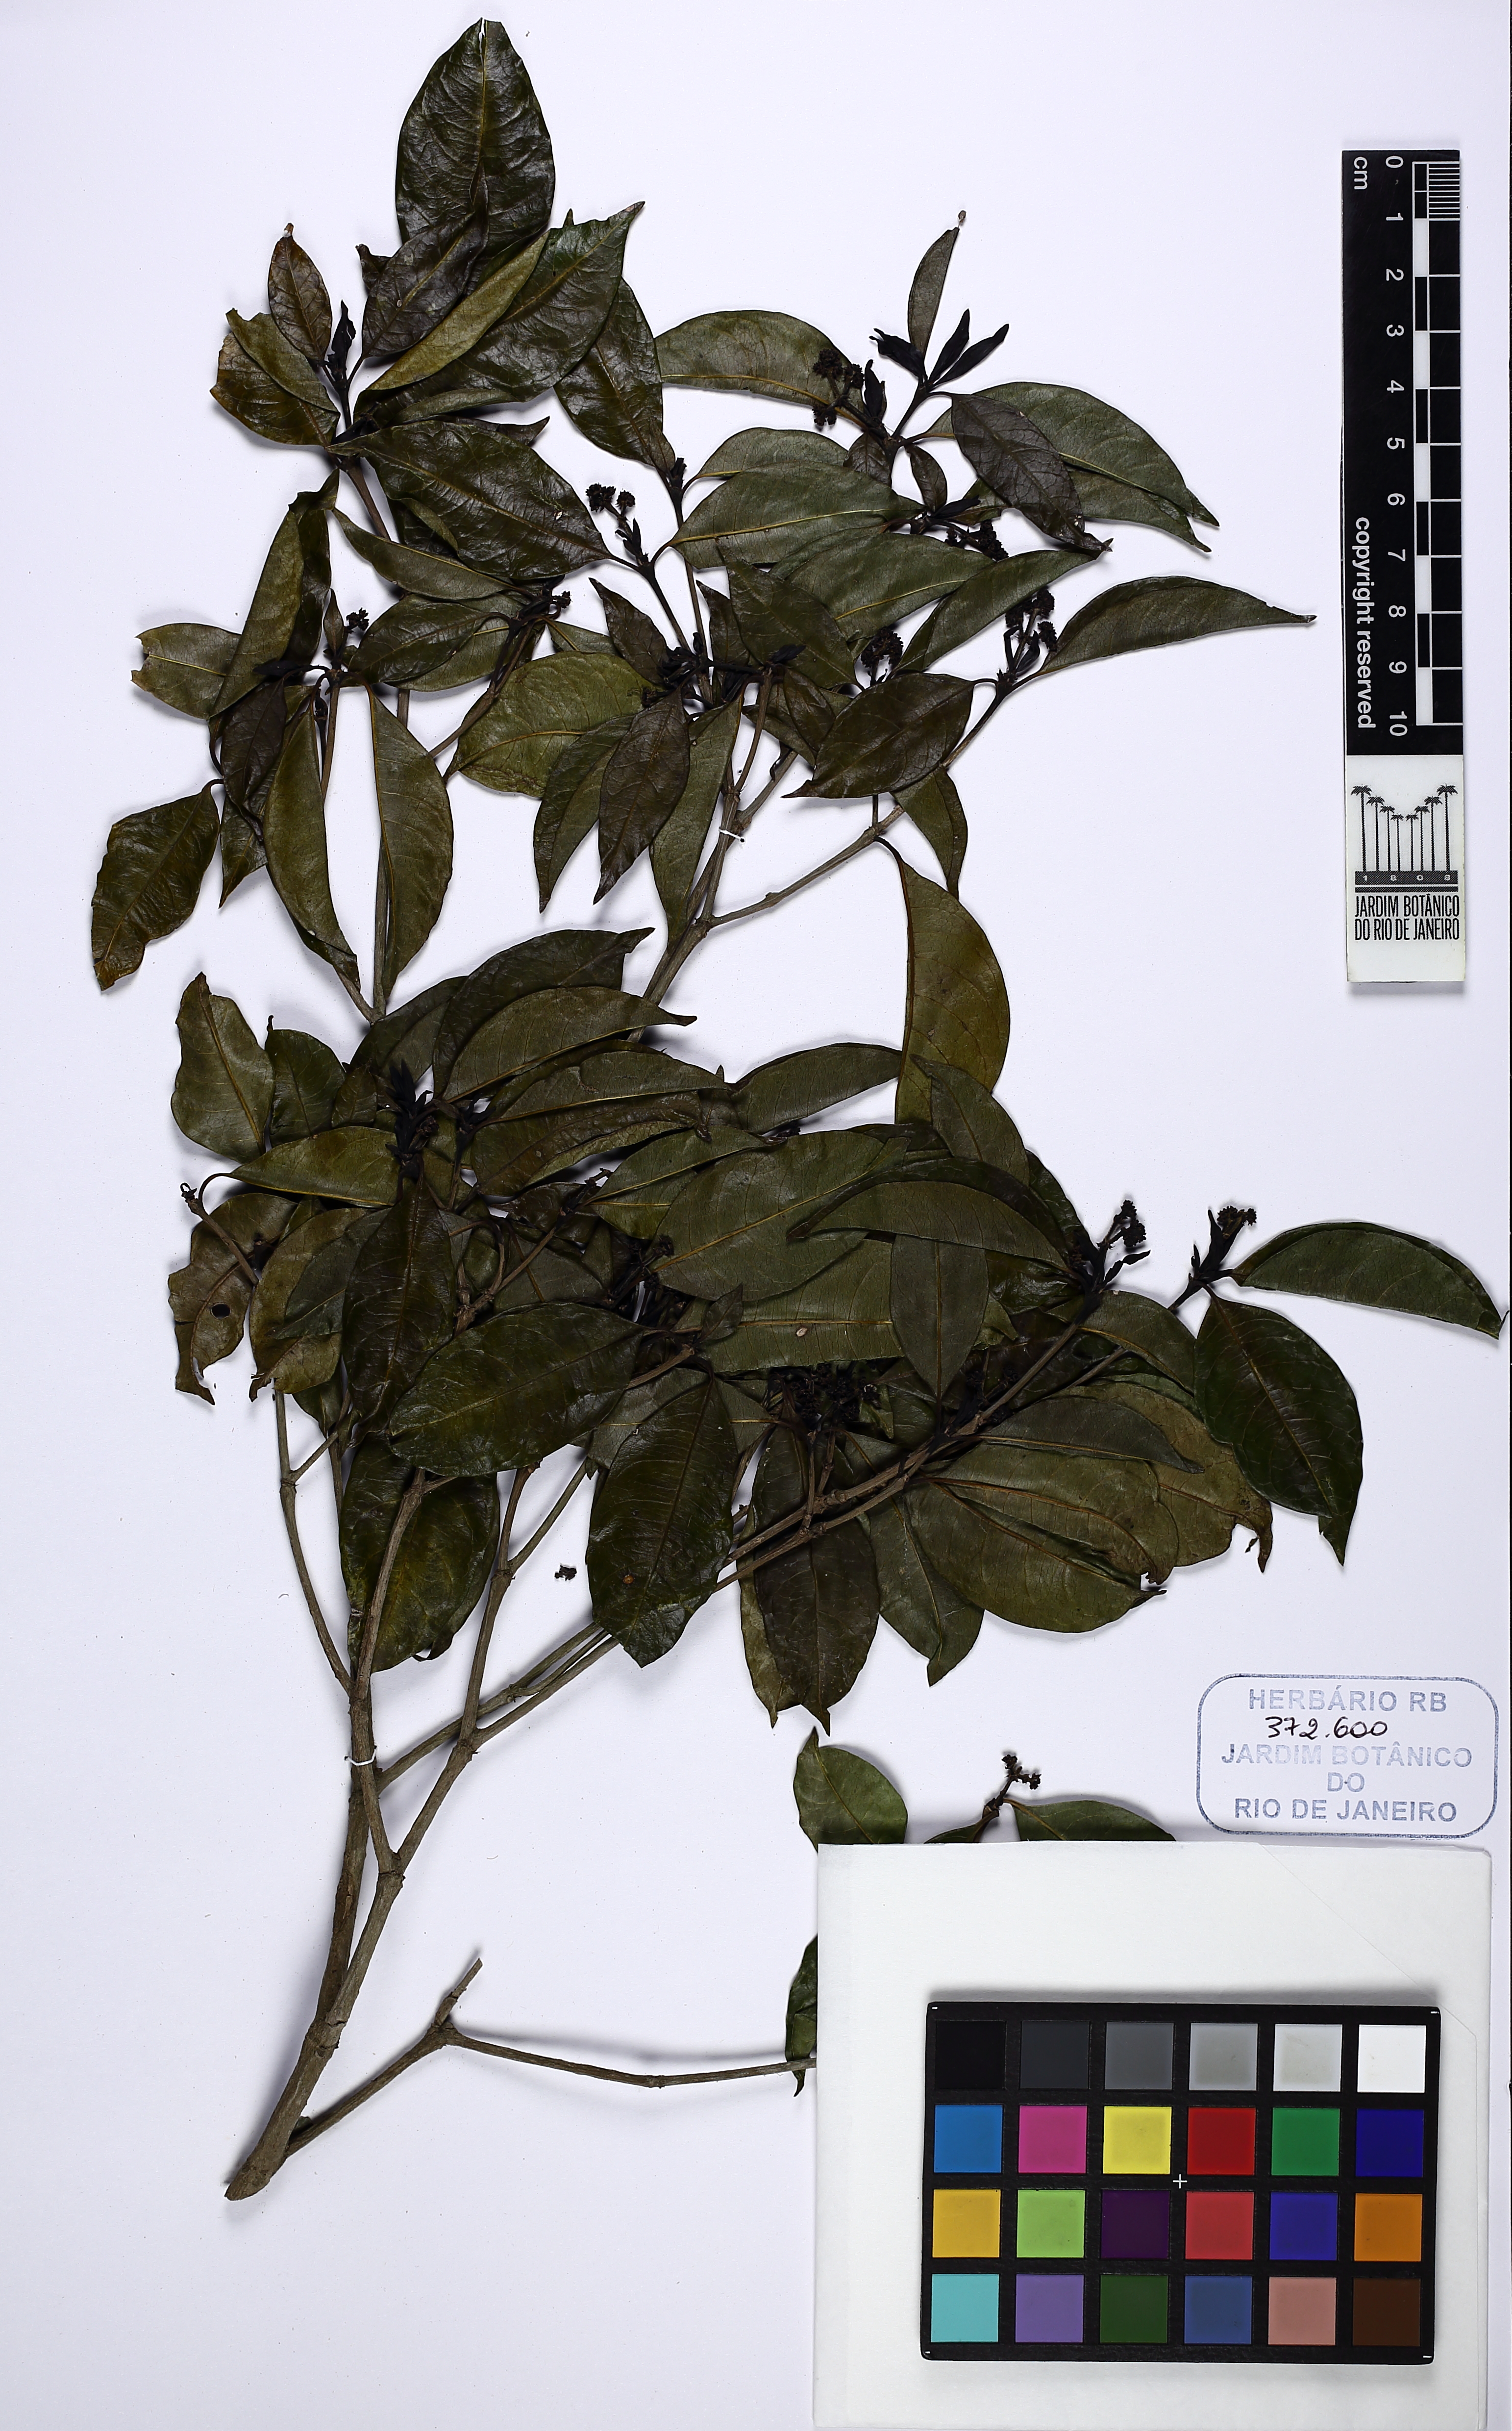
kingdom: Plantae
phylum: Tracheophyta
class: Magnoliopsida
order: Gentianales
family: Rubiaceae
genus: Rudgea
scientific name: Rudgea reticulata
